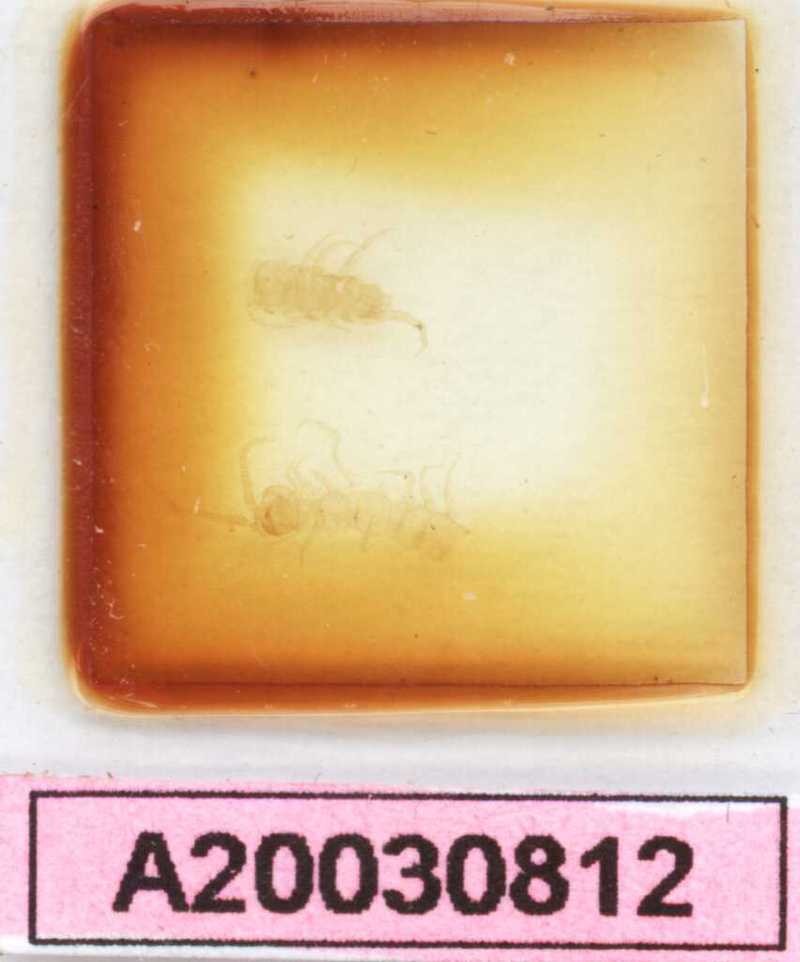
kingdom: Animalia
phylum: Arthropoda
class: Chilopoda
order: Lithobiomorpha
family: Lithobiidae
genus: Lithobius
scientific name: Lithobius lapidicola
